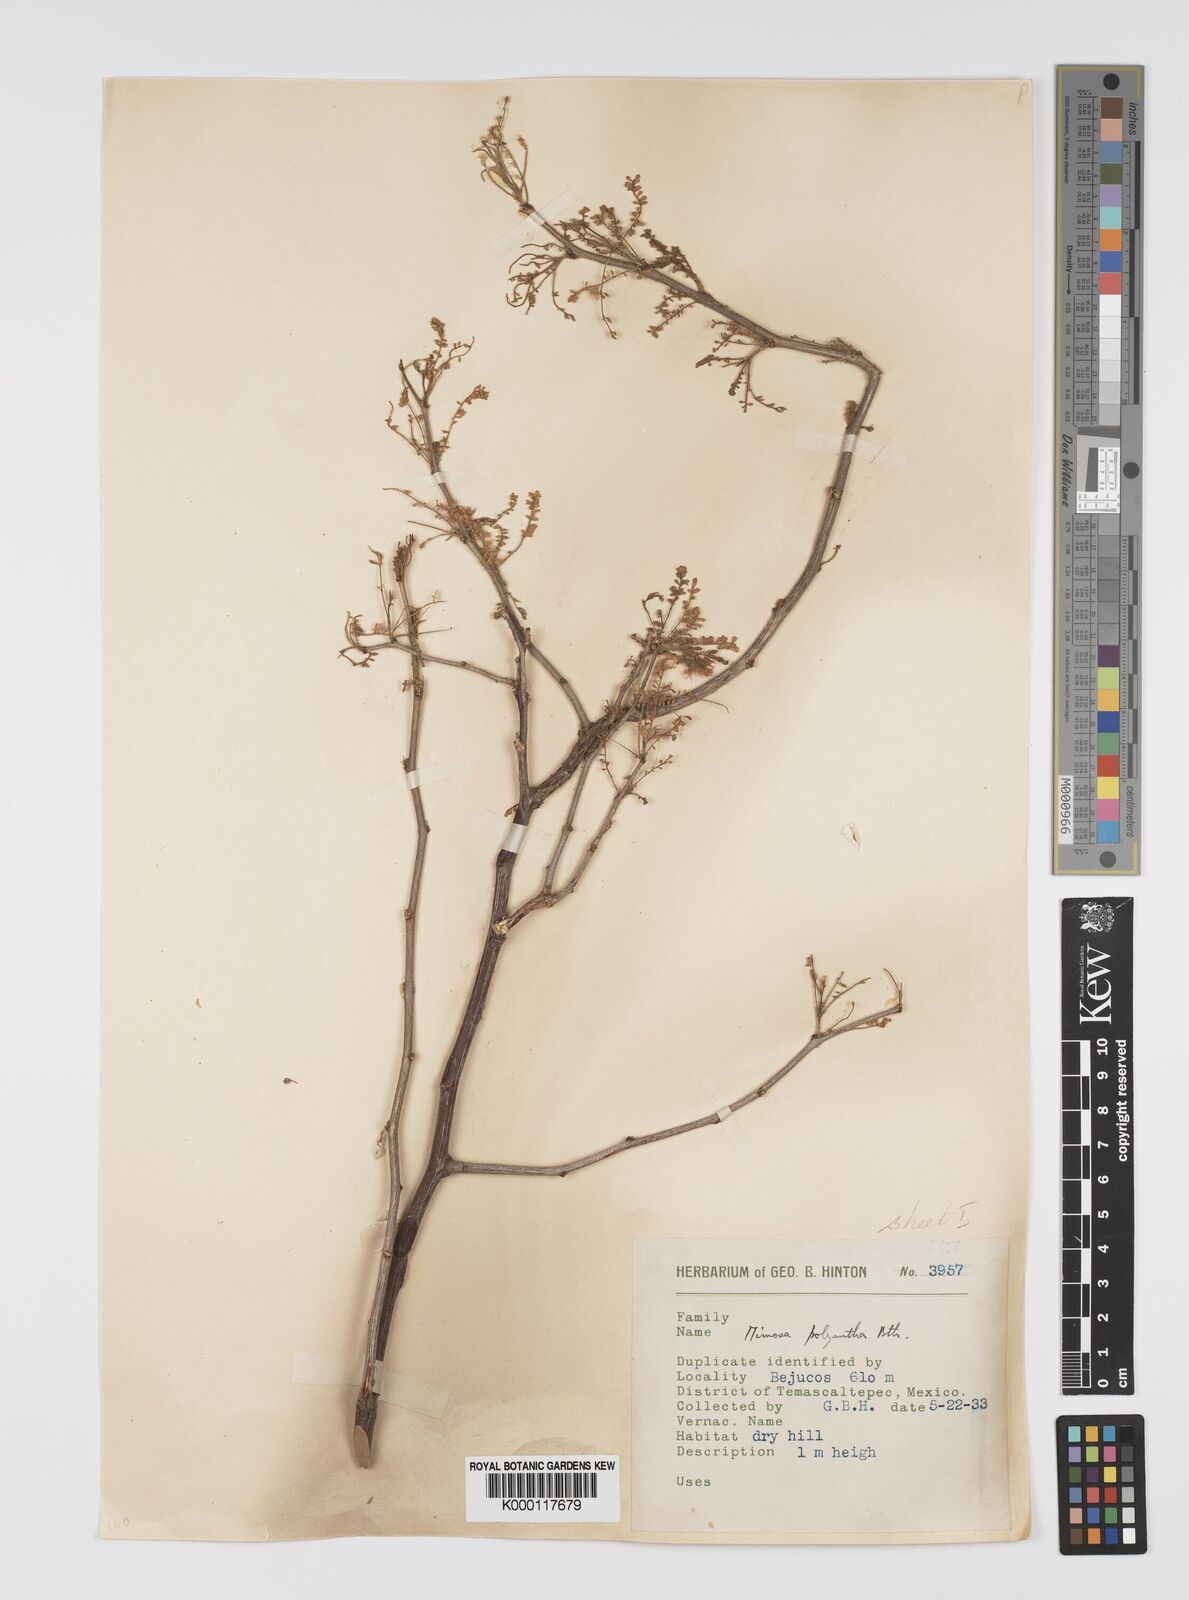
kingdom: Plantae
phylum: Tracheophyta
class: Magnoliopsida
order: Fabales
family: Fabaceae
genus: Mimosa
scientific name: Mimosa polyantha
